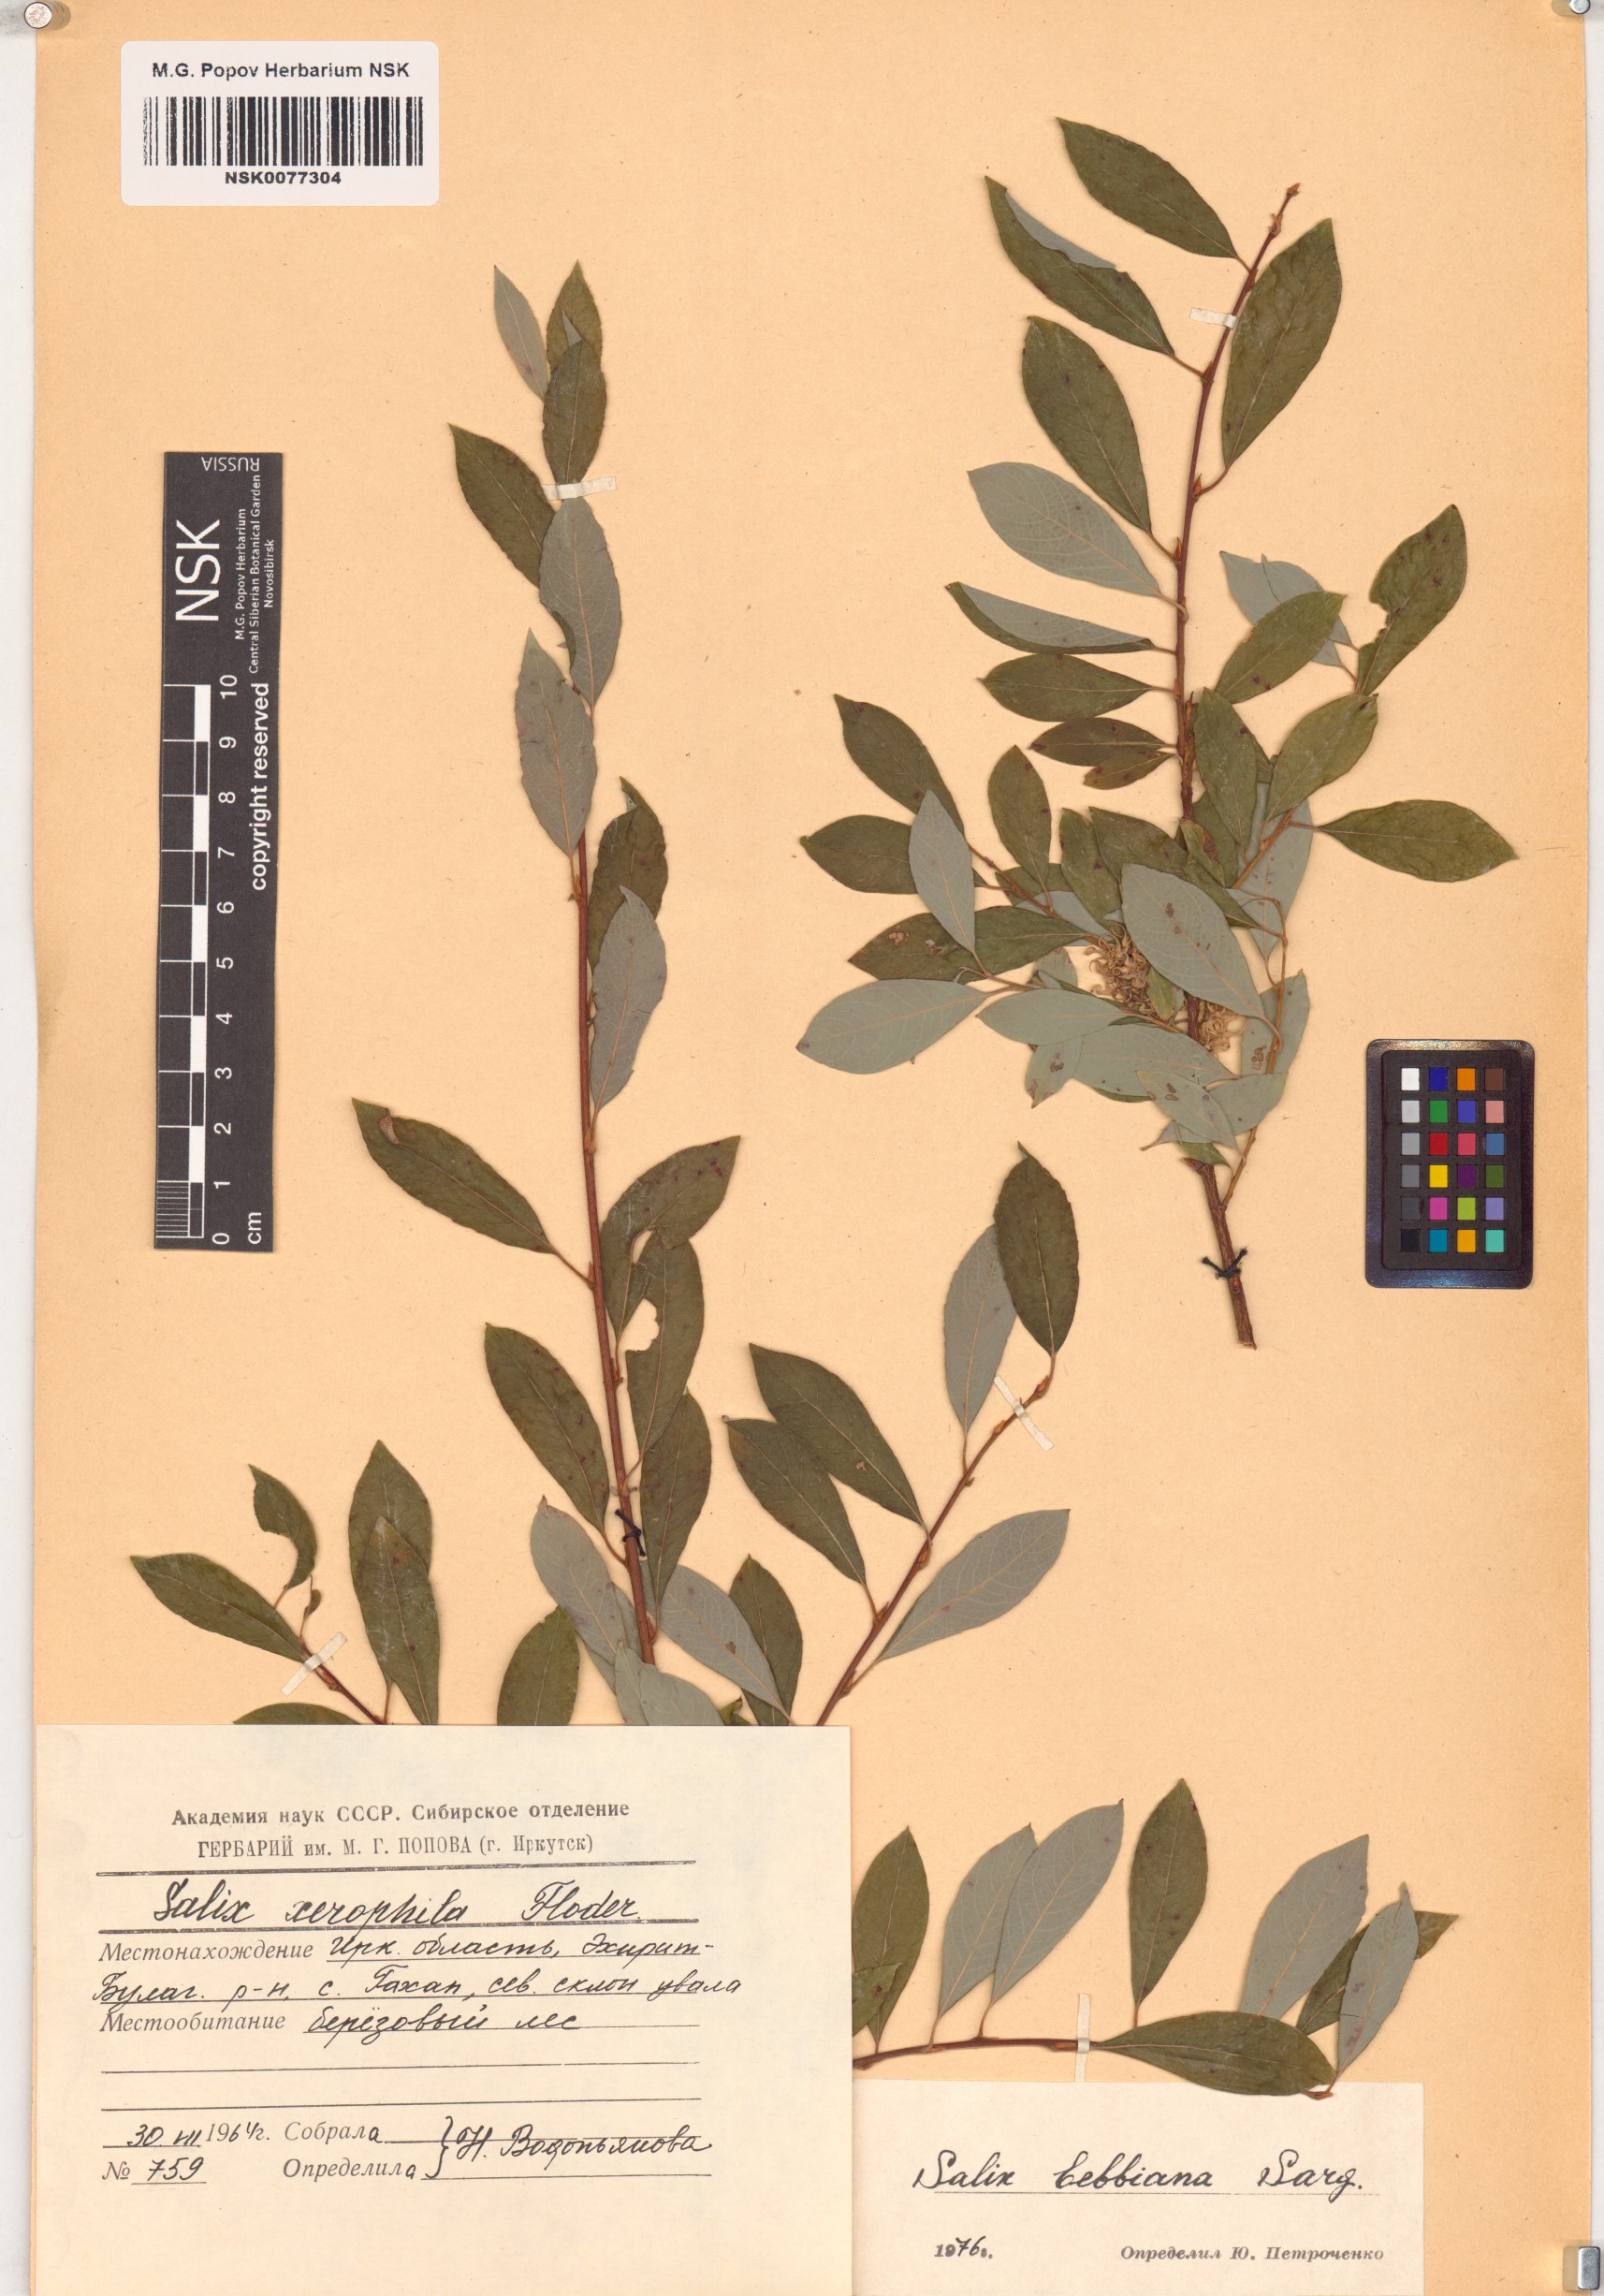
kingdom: Plantae
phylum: Tracheophyta
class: Magnoliopsida
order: Malpighiales
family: Salicaceae
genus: Salix
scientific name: Salix bebbiana
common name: Bebb's willow
